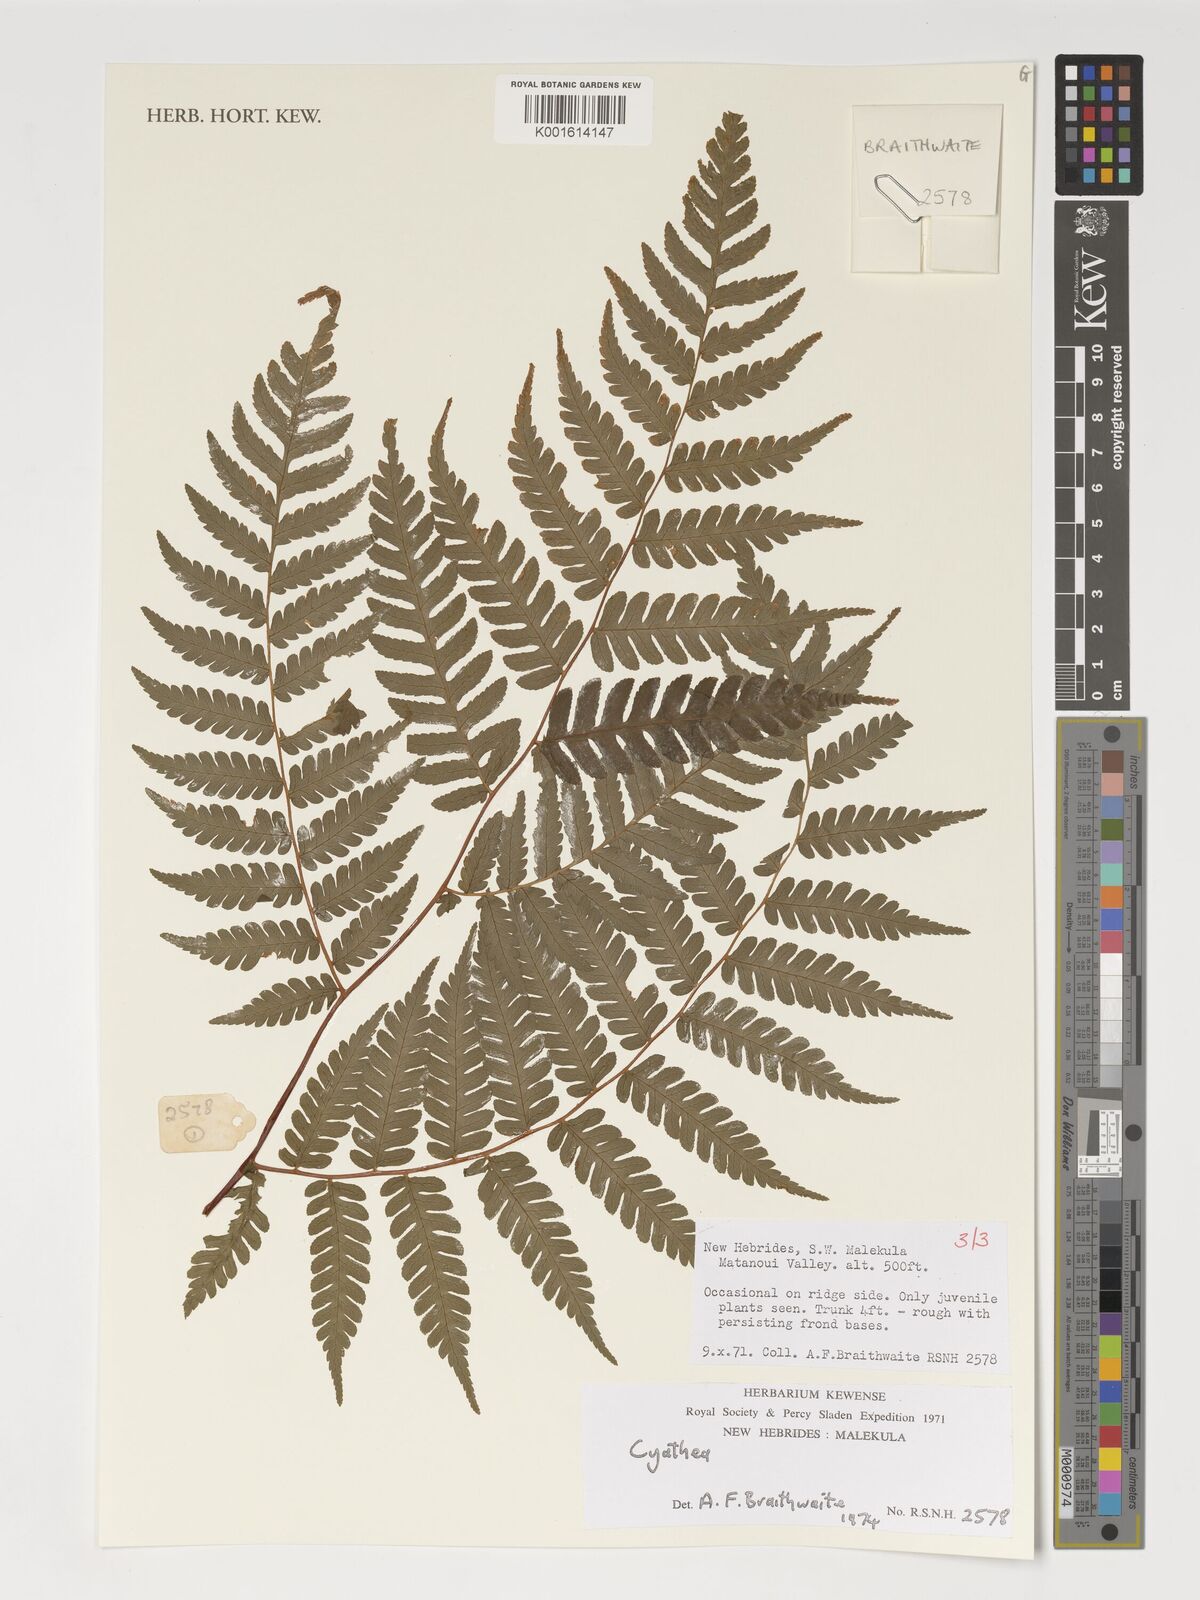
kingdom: Plantae
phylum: Tracheophyta
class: Polypodiopsida
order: Cyatheales
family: Cyatheaceae
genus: Cyathea
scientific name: Cyathea
